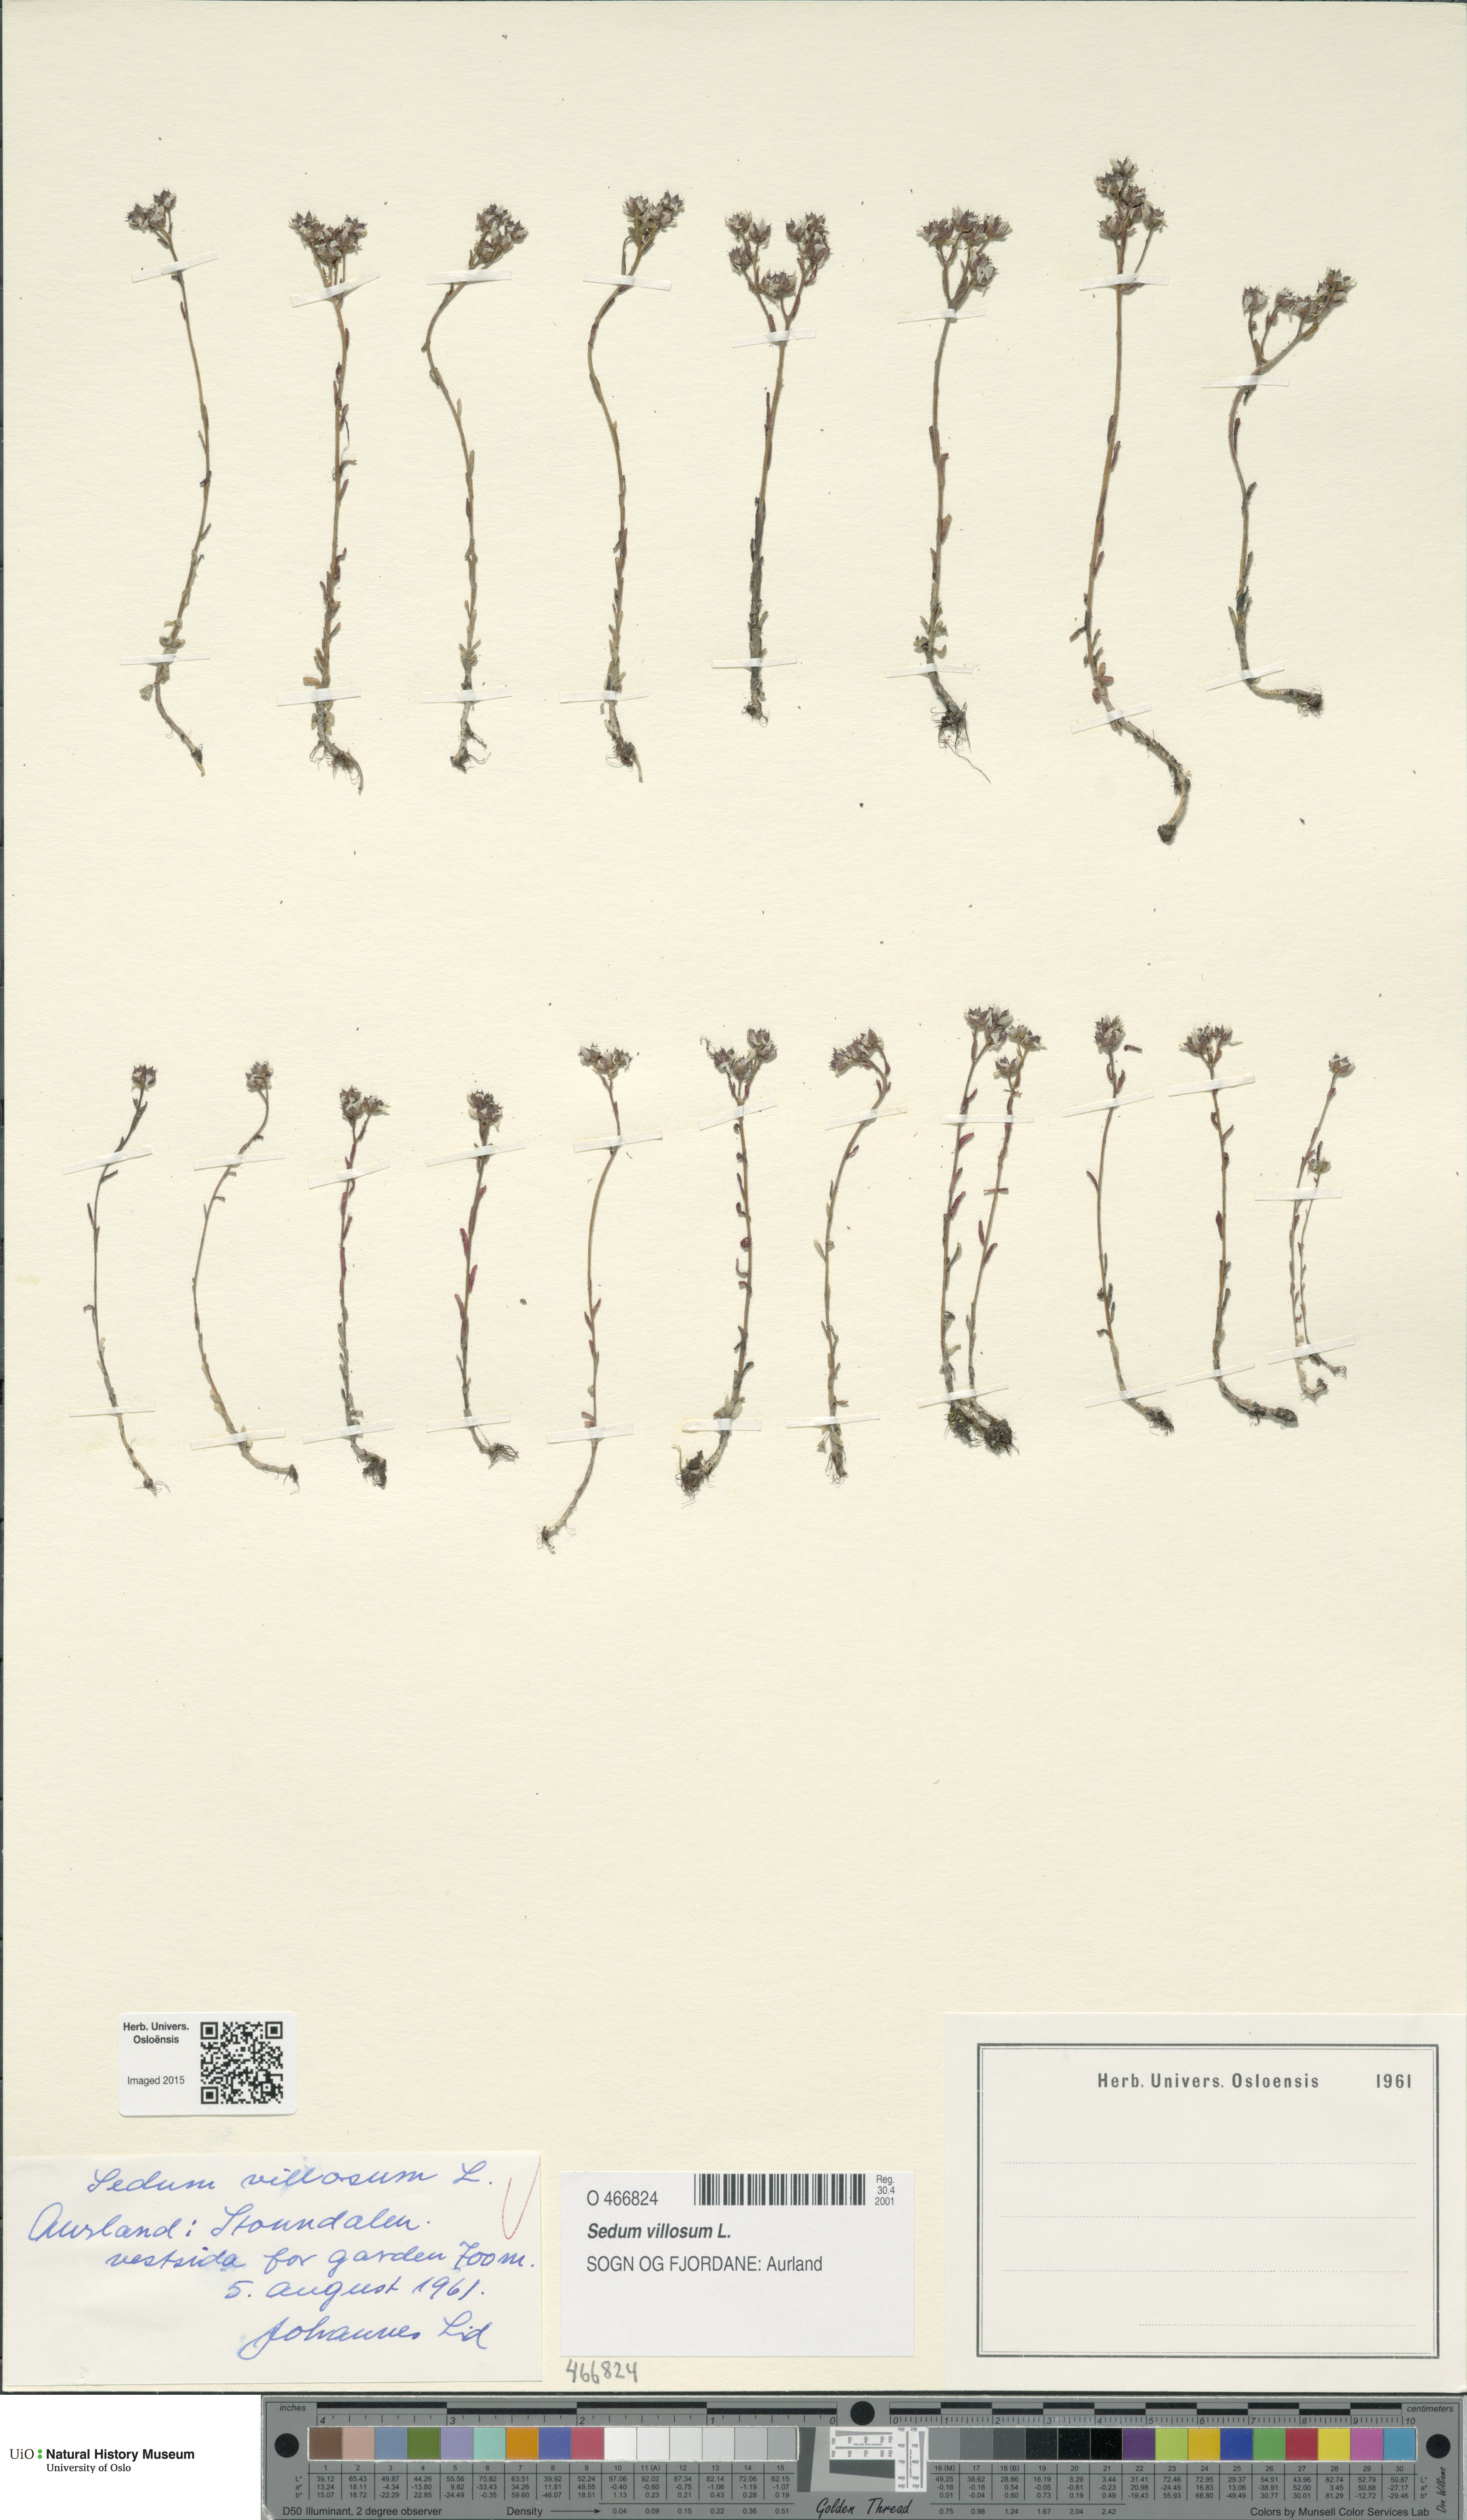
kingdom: Plantae
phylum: Tracheophyta
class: Magnoliopsida
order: Saxifragales
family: Crassulaceae
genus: Sedum
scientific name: Sedum villosum
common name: Hairy stonecrop
